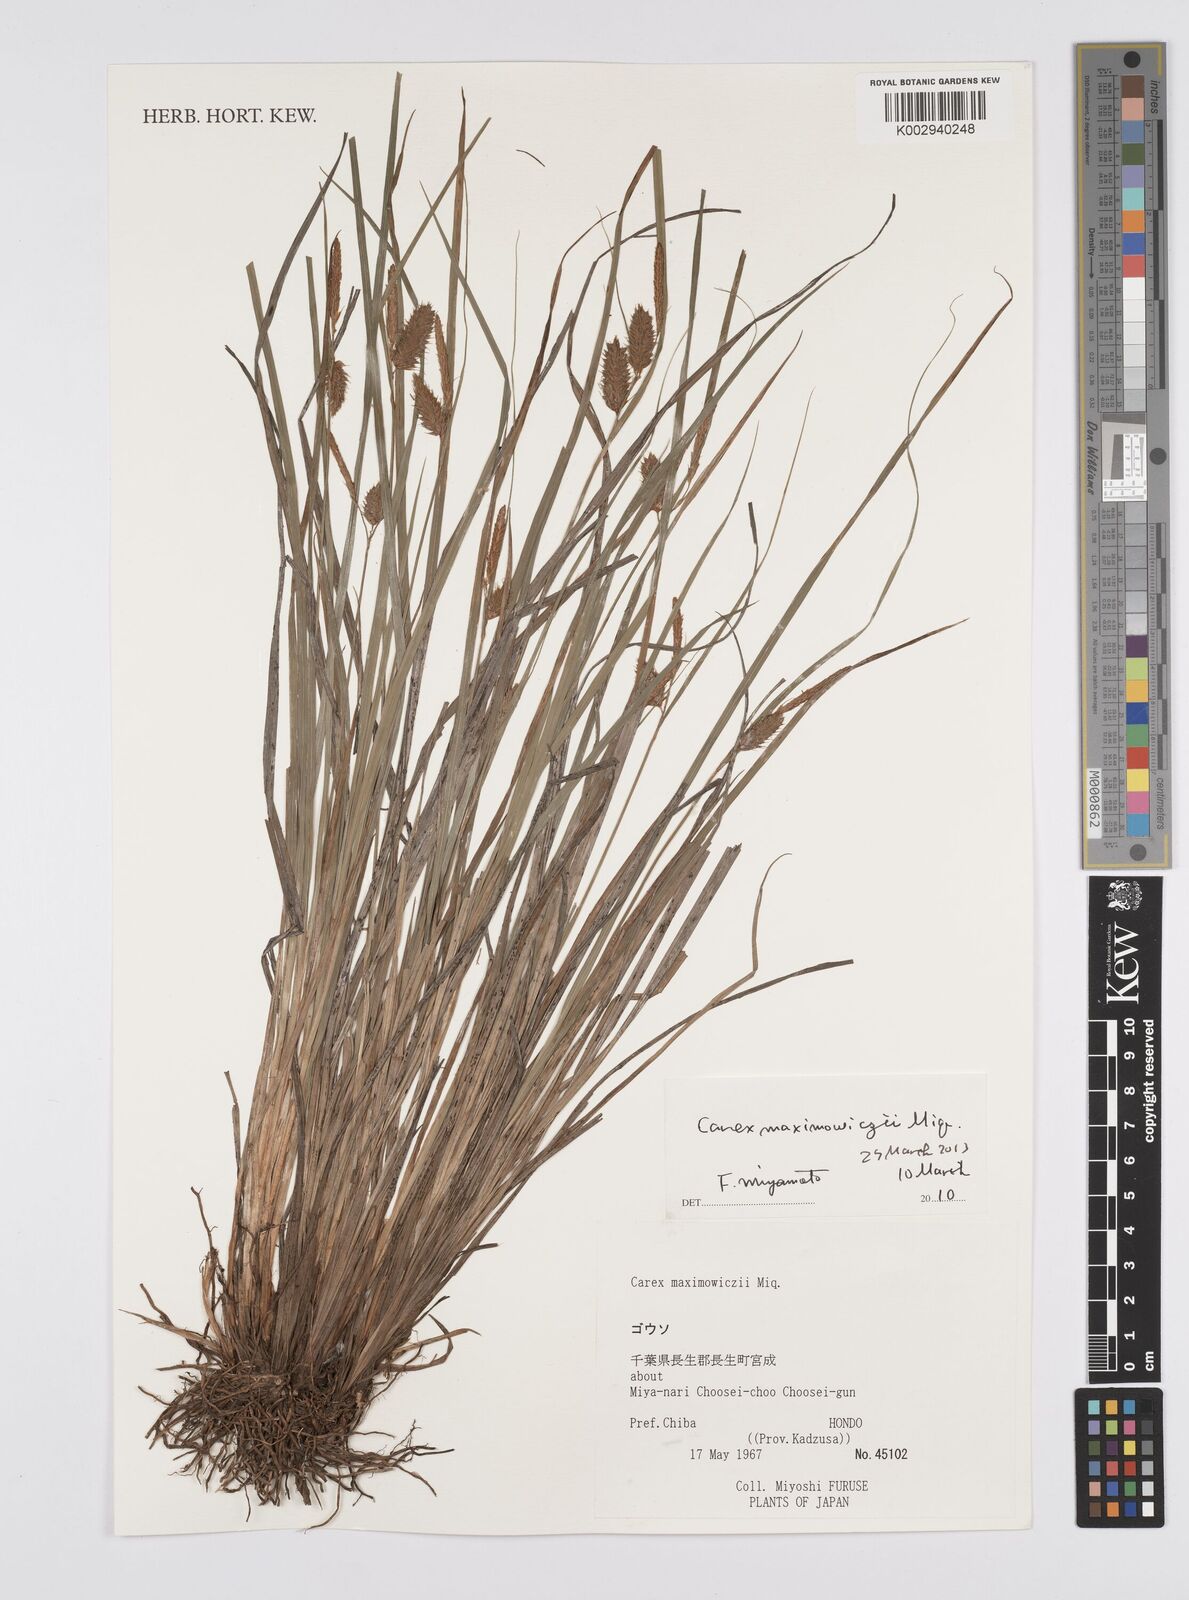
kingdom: Plantae
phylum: Tracheophyta
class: Liliopsida
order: Poales
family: Cyperaceae
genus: Carex
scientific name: Carex pruinosa
